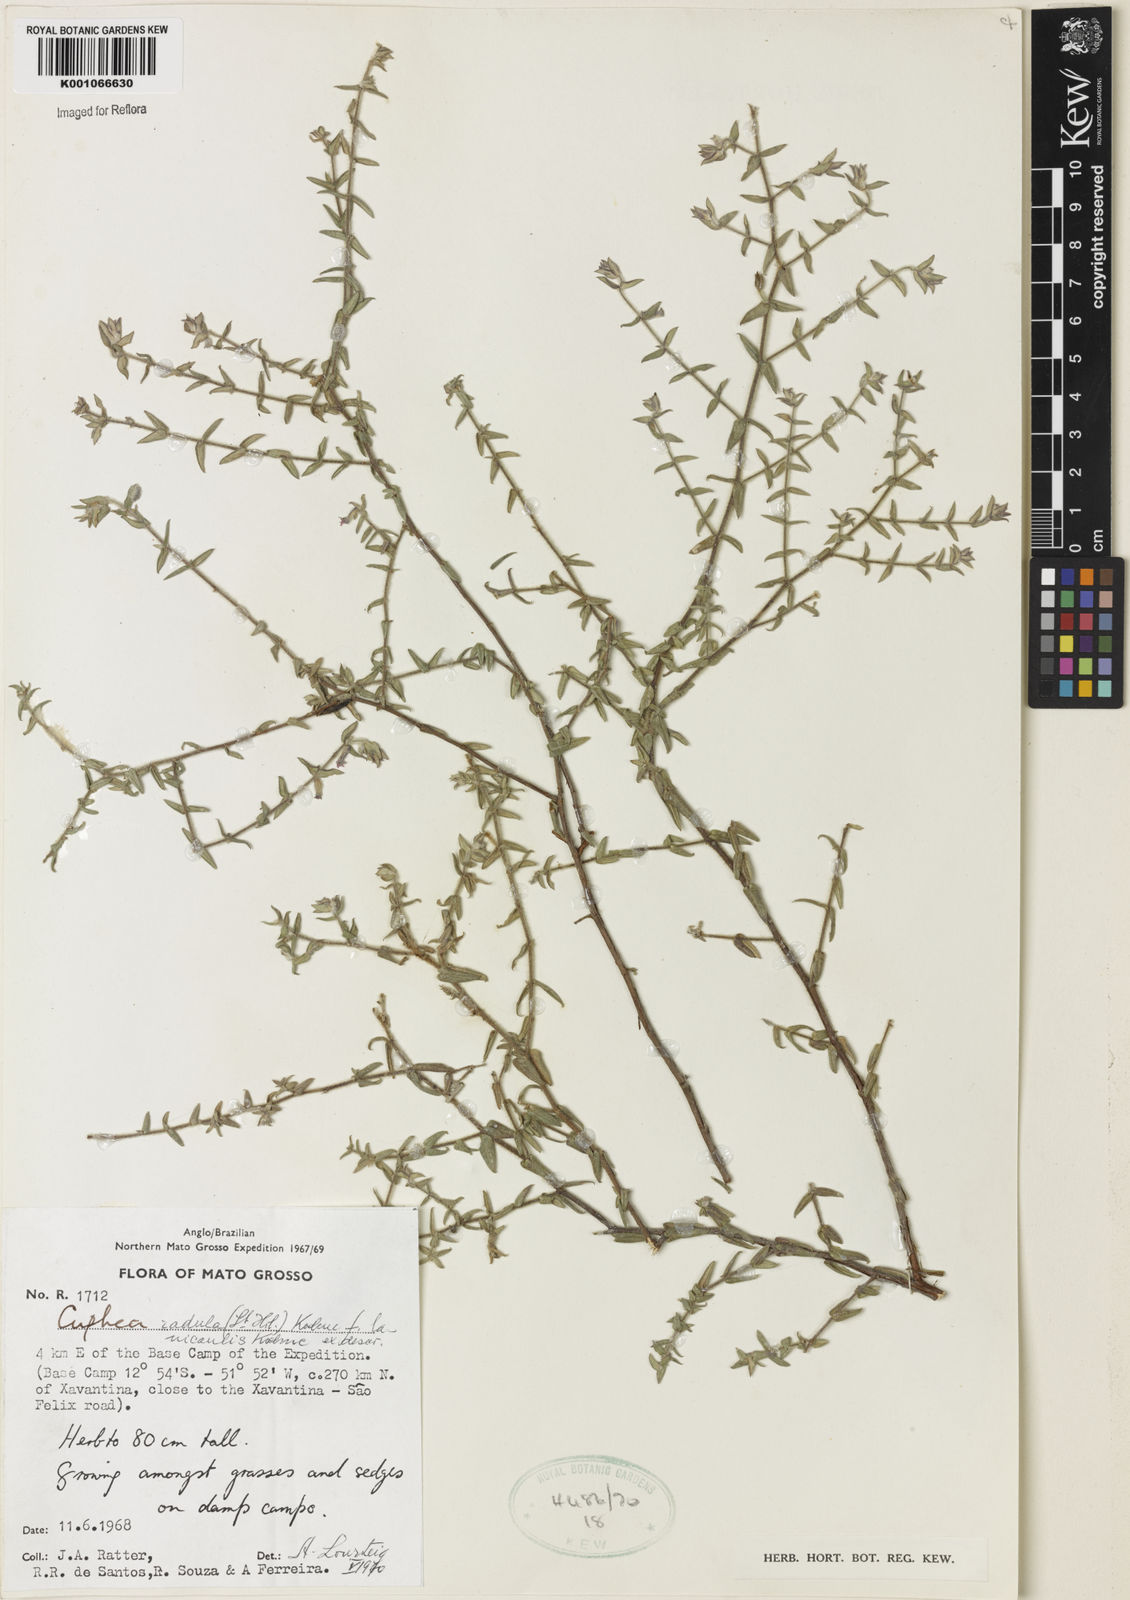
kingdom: Plantae
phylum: Tracheophyta
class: Magnoliopsida
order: Myrtales
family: Lythraceae
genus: Cuphea
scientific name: Cuphea antisyphilitica
